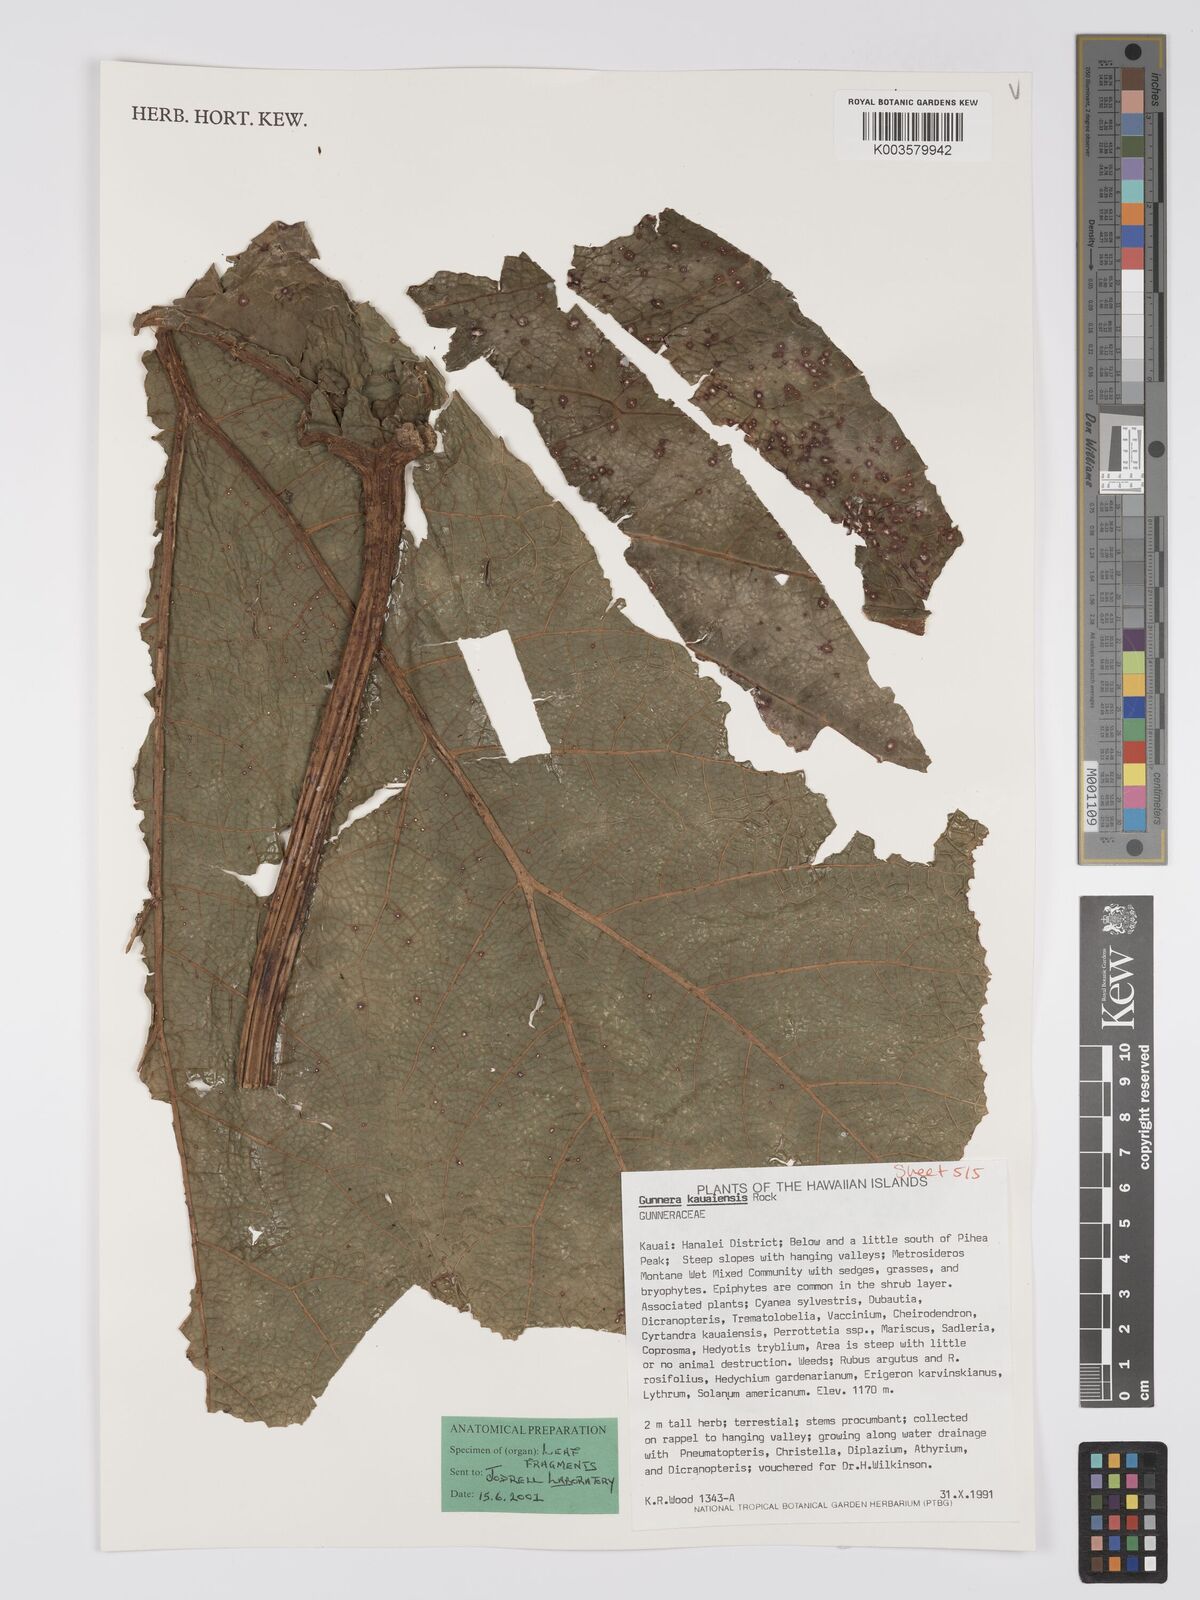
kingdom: Plantae
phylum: Tracheophyta
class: Magnoliopsida
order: Gunnerales
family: Gunneraceae
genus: Gunnera
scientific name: Gunnera kauaiensis
